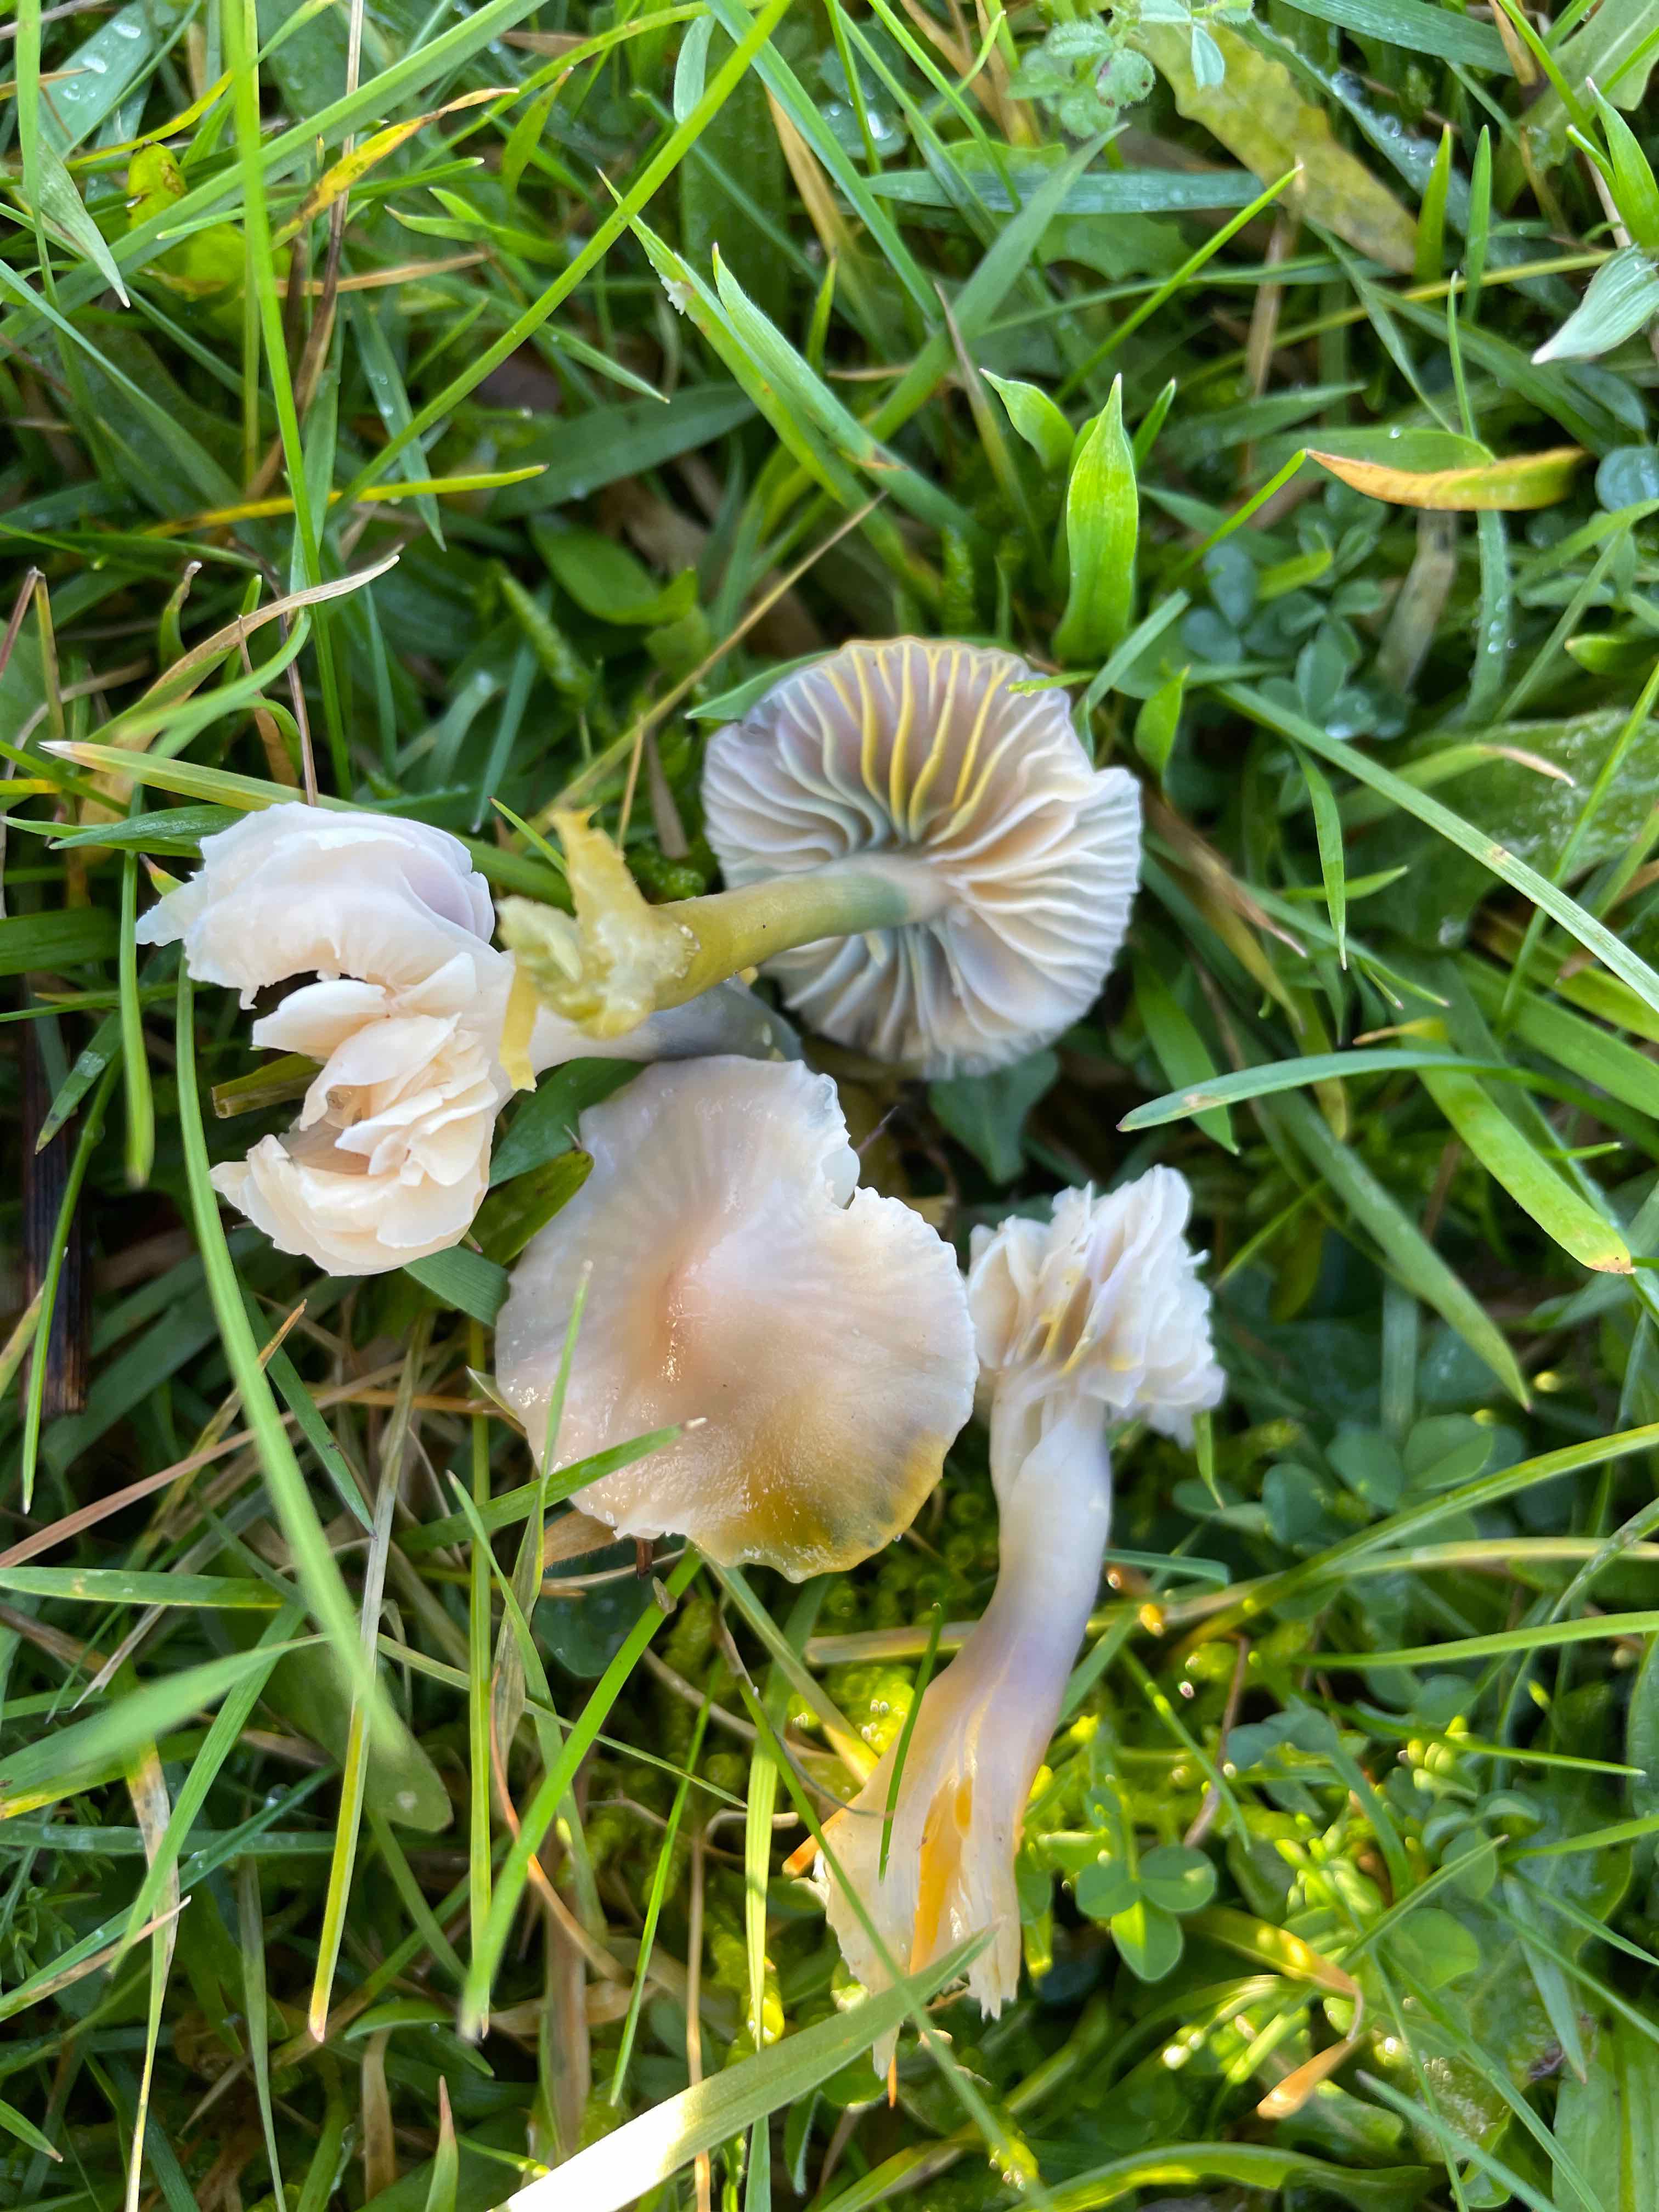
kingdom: Fungi
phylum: Basidiomycota
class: Agaricomycetes
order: Agaricales
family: Hygrophoraceae
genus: Gliophorus
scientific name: Gliophorus psittacinus
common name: papegøje-vokshat
